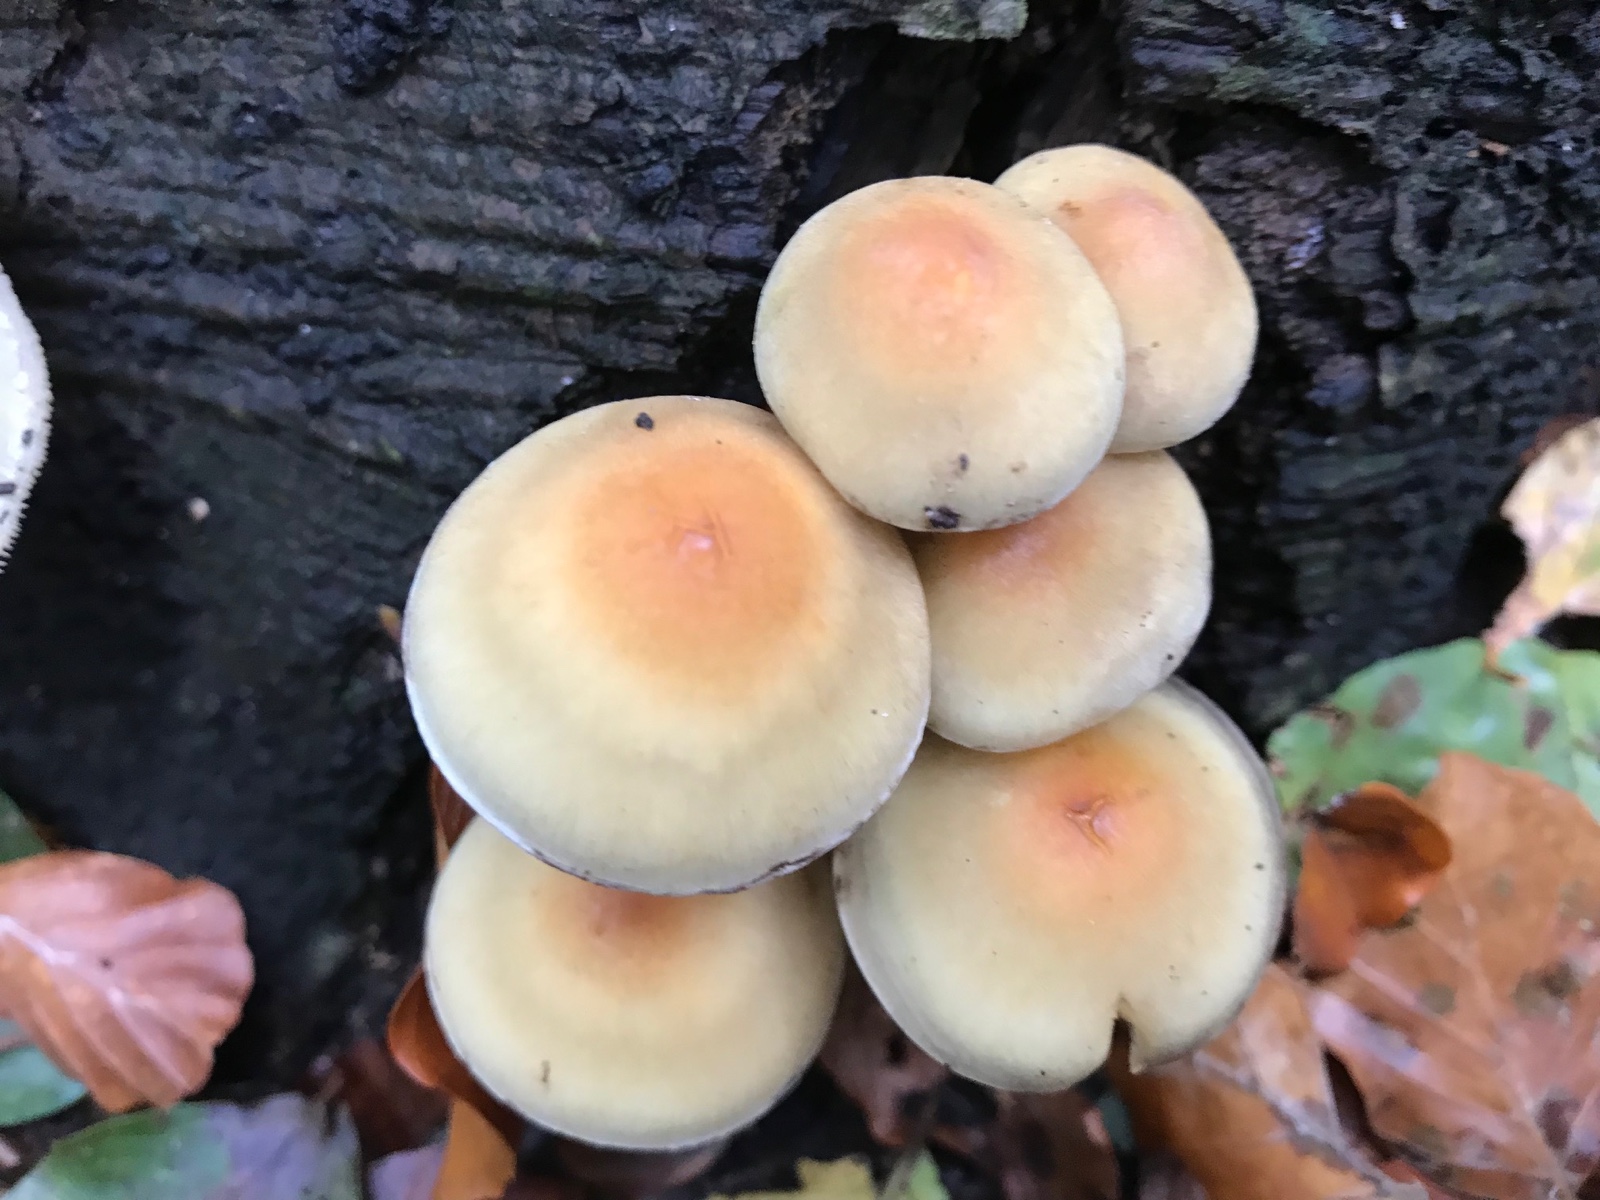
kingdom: Fungi
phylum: Basidiomycota
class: Agaricomycetes
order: Agaricales
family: Strophariaceae
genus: Hypholoma
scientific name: Hypholoma fasciculare
